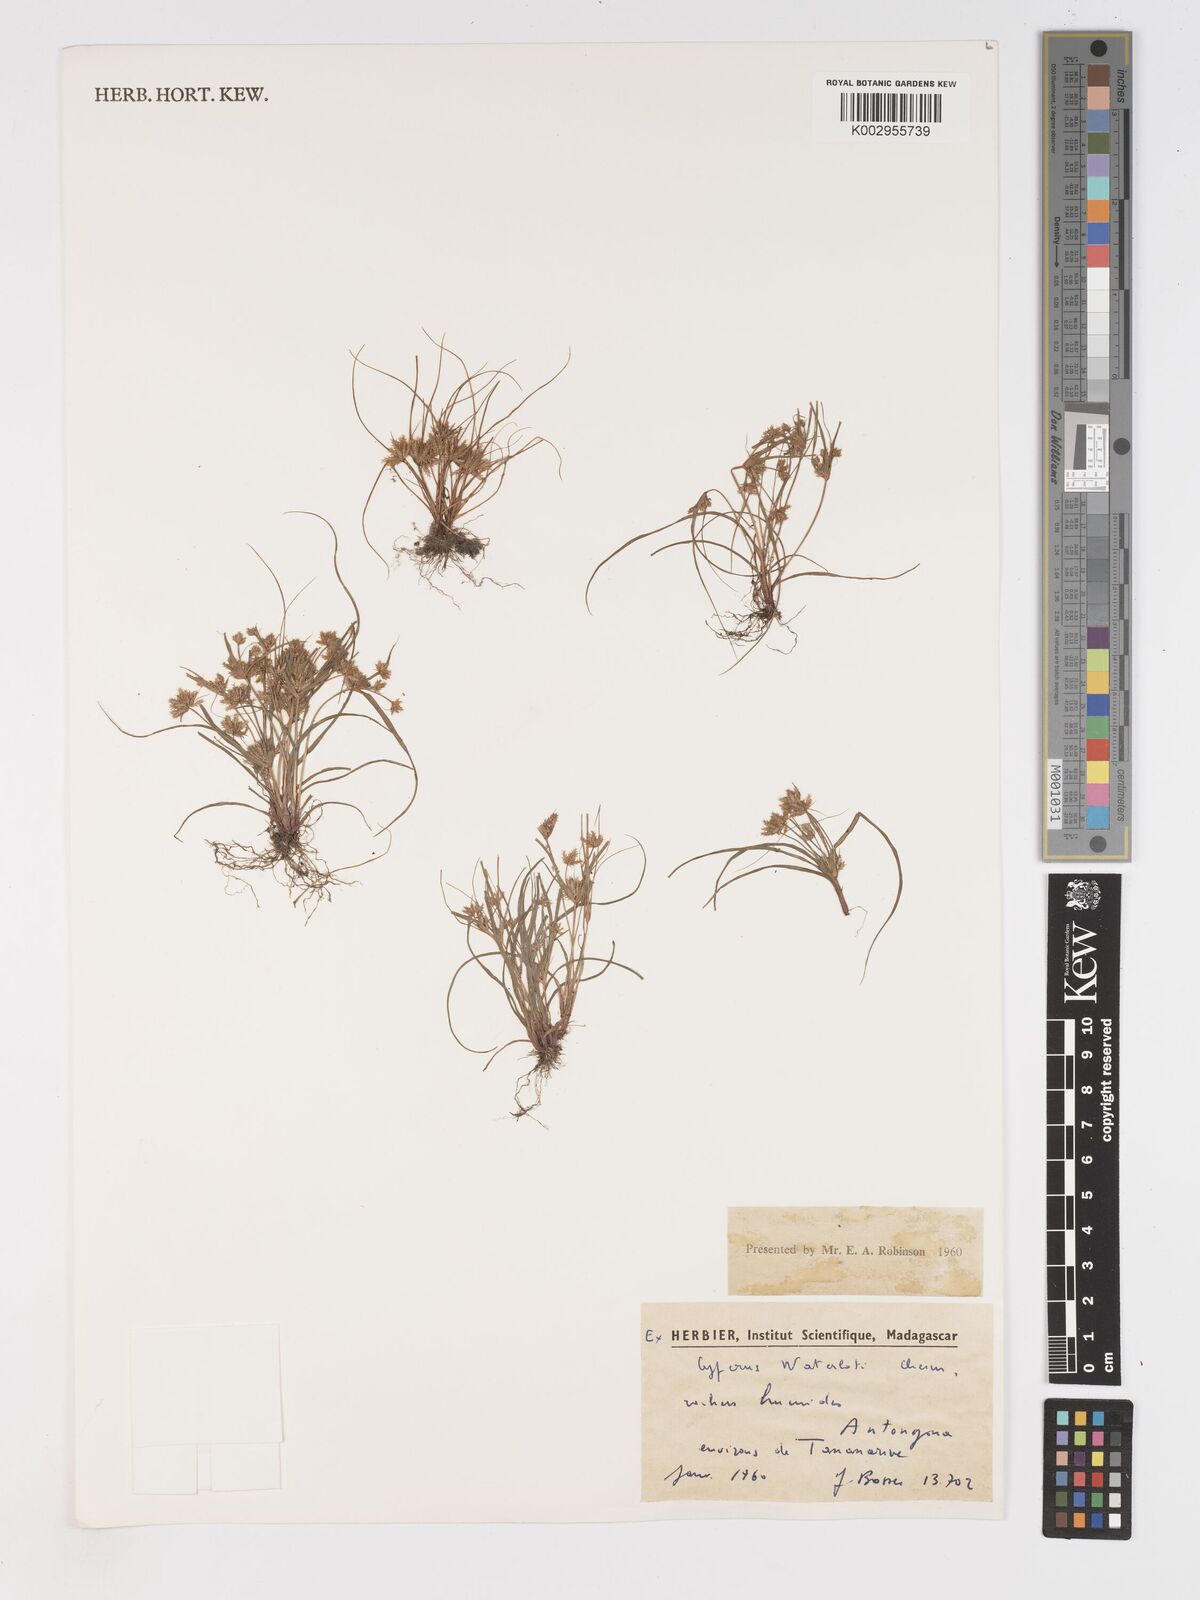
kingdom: Plantae
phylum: Tracheophyta
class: Liliopsida
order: Poales
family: Cyperaceae
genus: Cyperus
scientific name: Cyperus cuspidatus
